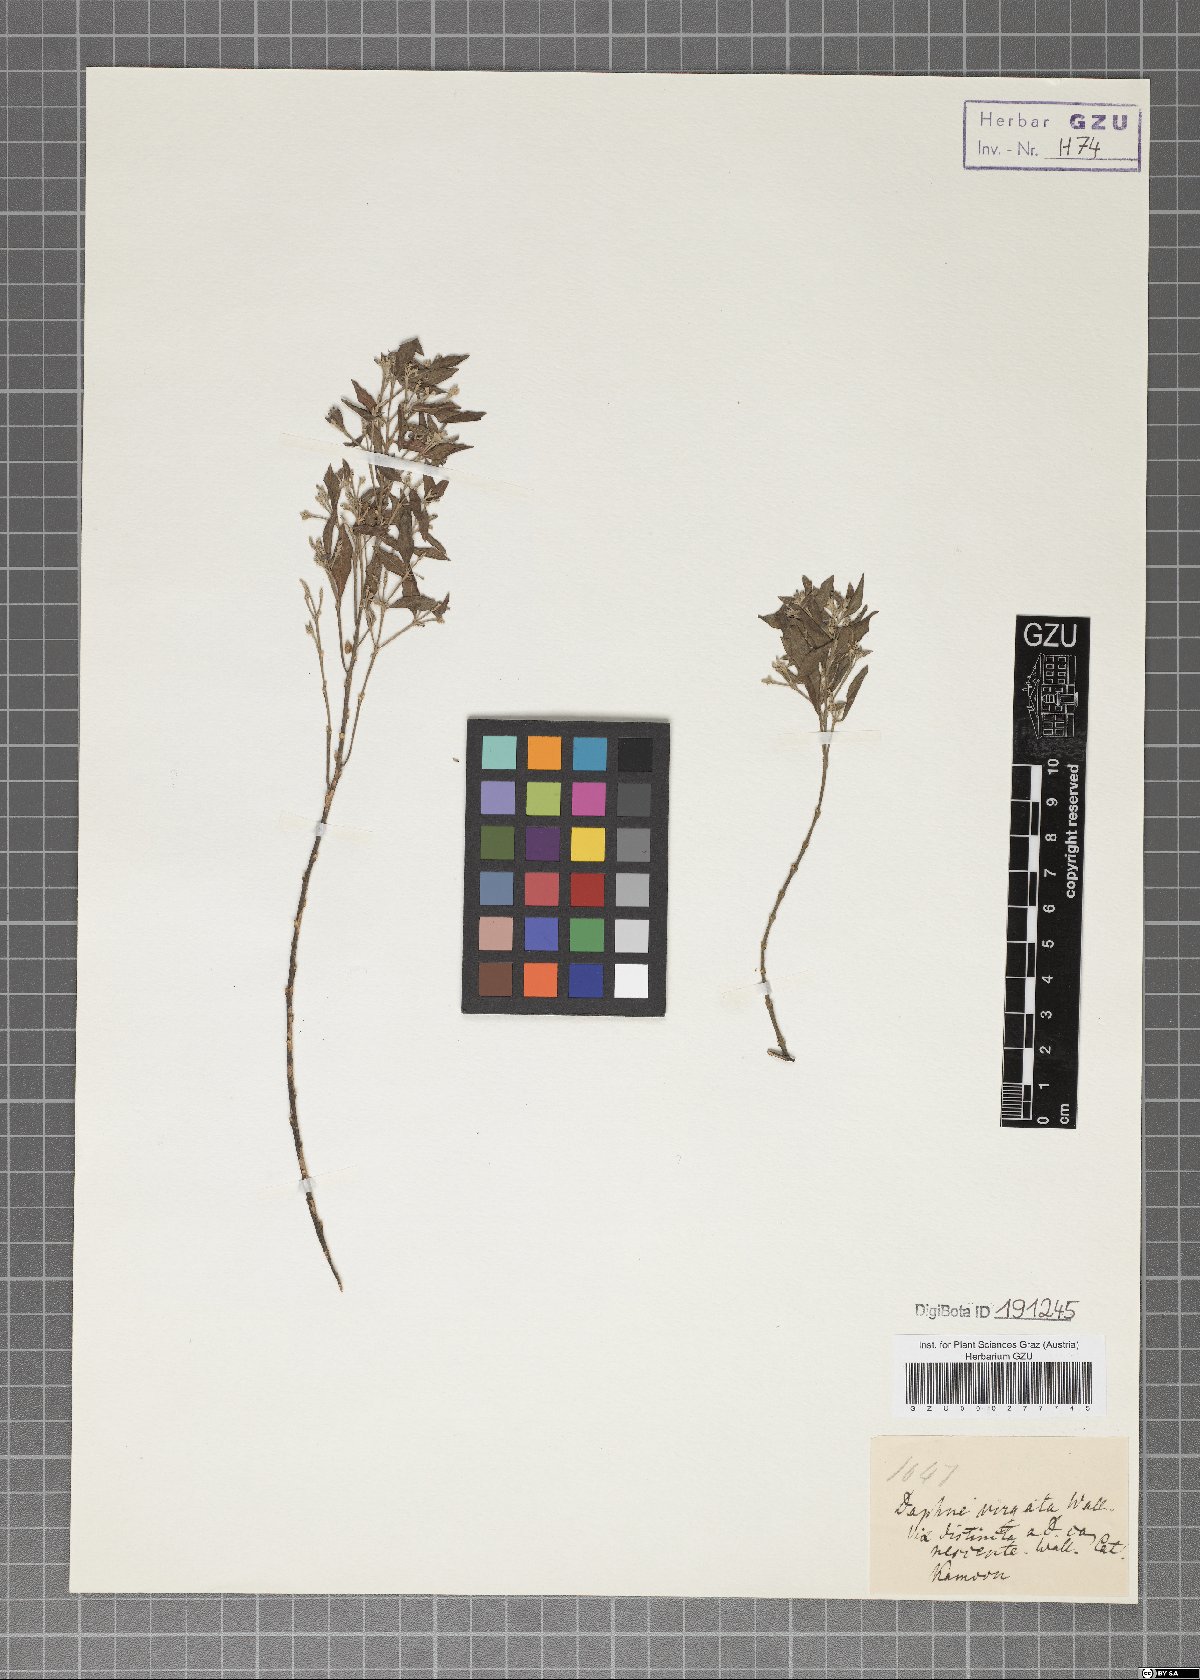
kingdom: Plantae
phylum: Tracheophyta
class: Magnoliopsida
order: Malvales
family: Thymelaeaceae
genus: Wikstroemia
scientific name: Wikstroemia canescens
